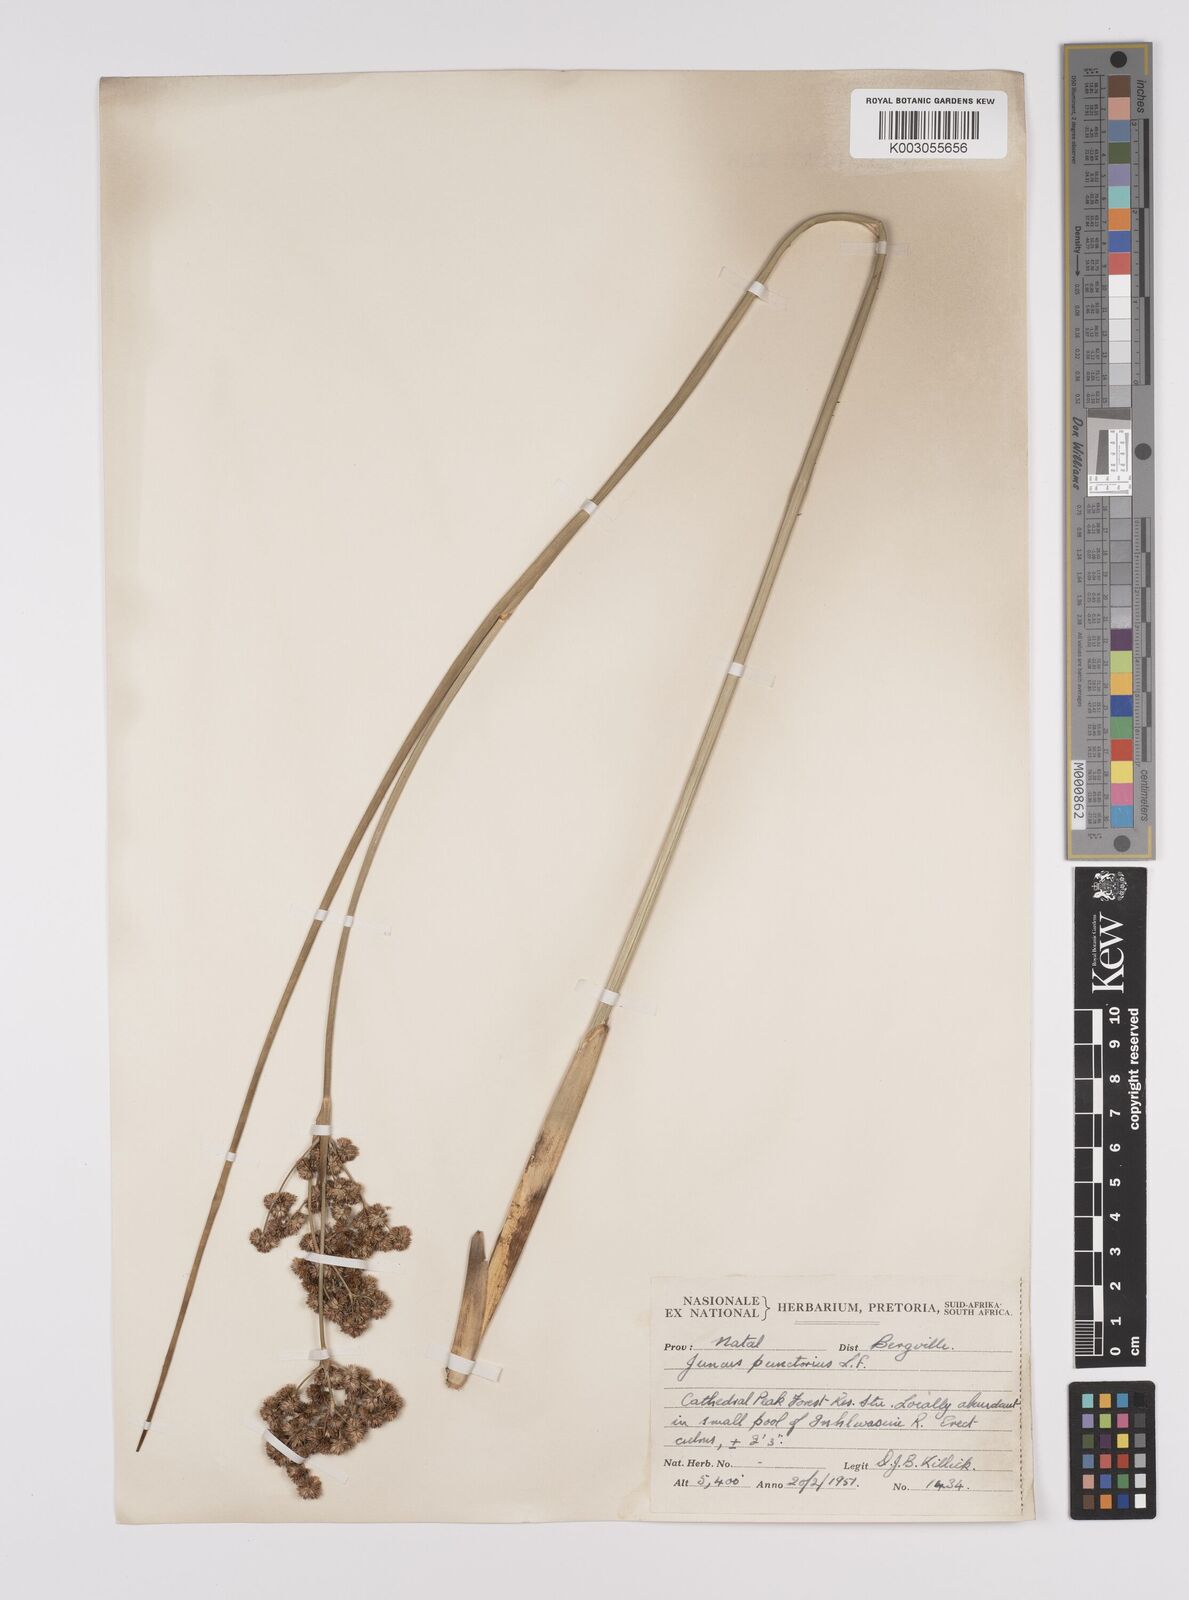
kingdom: Plantae
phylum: Tracheophyta
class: Liliopsida
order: Poales
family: Juncaceae
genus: Juncus
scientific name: Juncus punctorius
